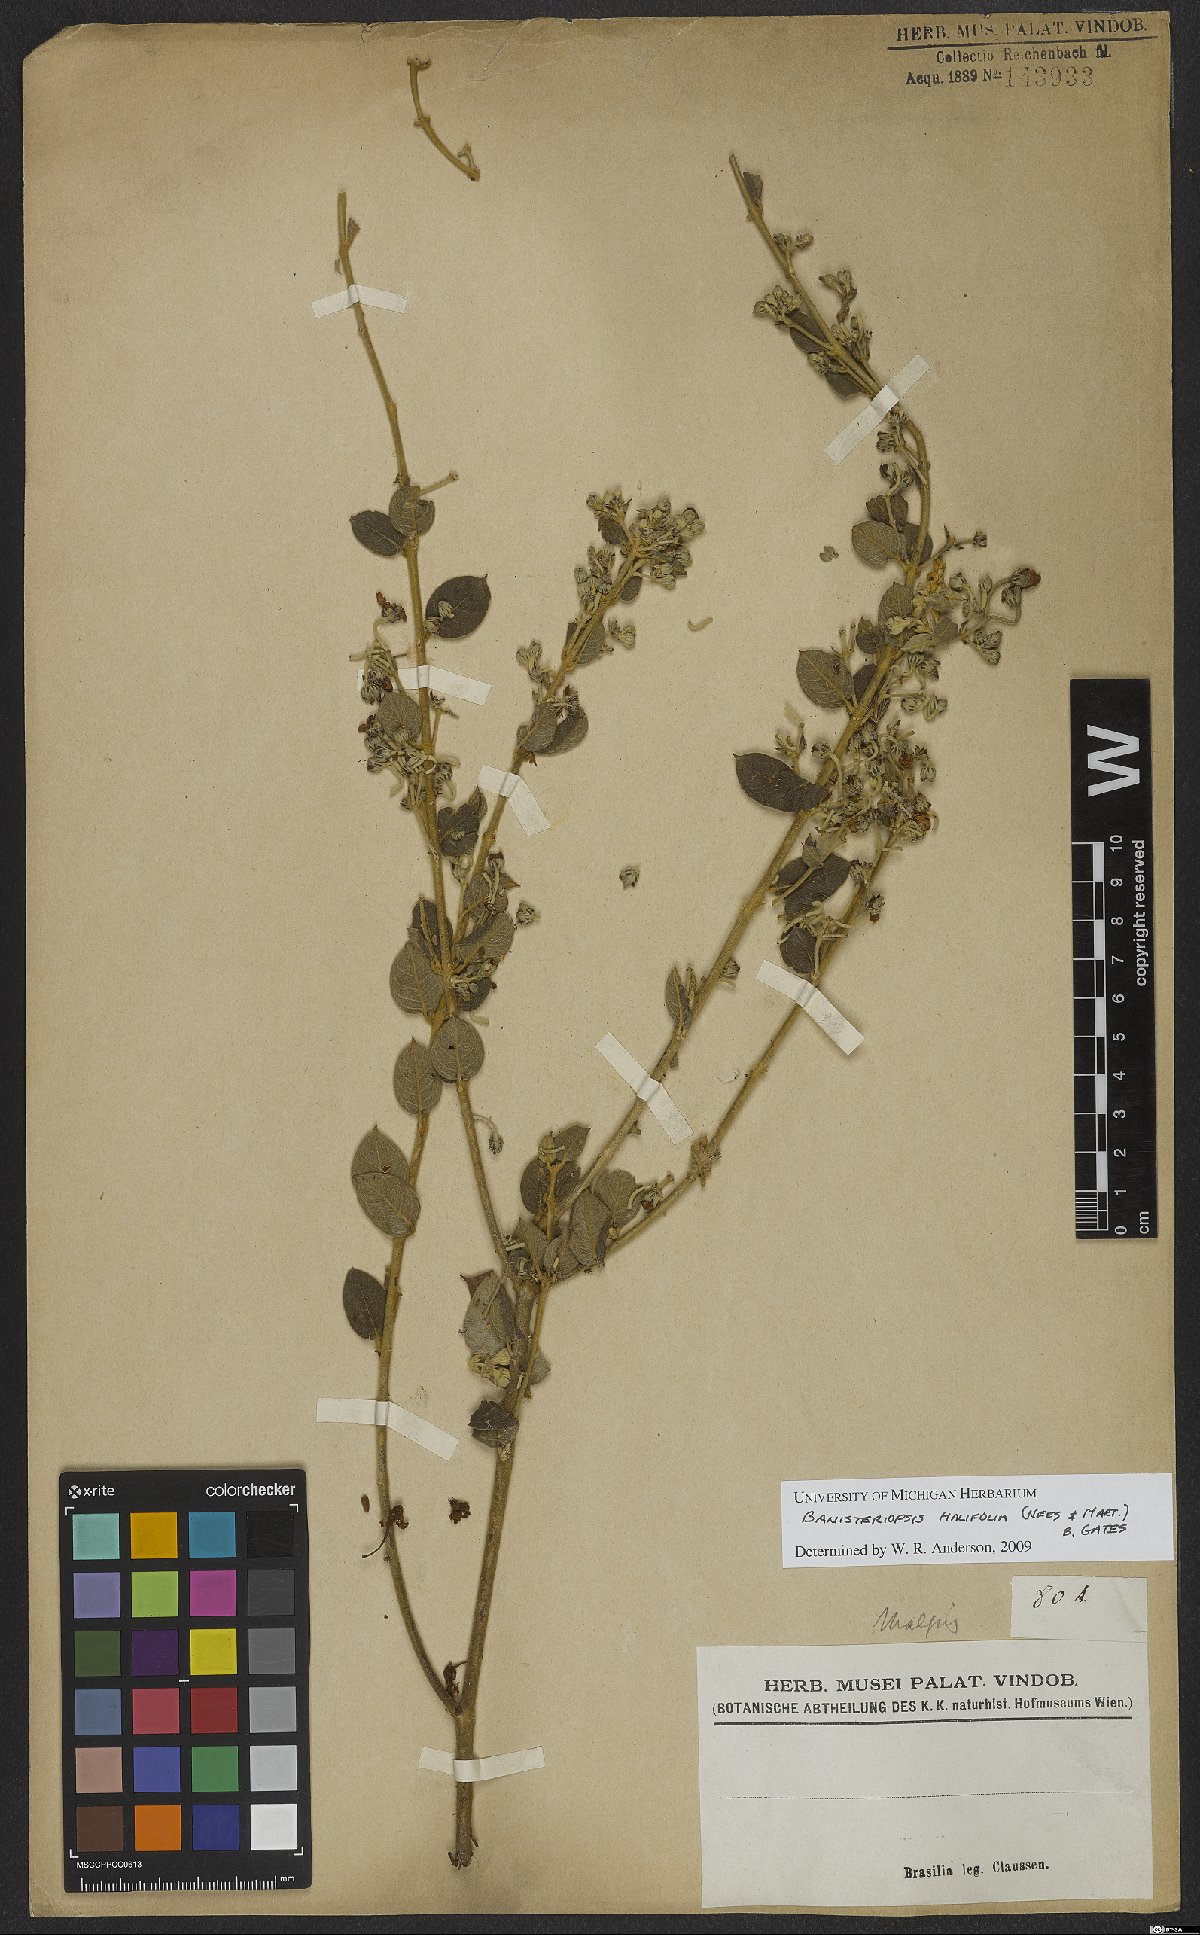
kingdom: Plantae
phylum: Tracheophyta
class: Magnoliopsida
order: Malpighiales
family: Malpighiaceae
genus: Banisteriopsis
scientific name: Banisteriopsis malifolia
